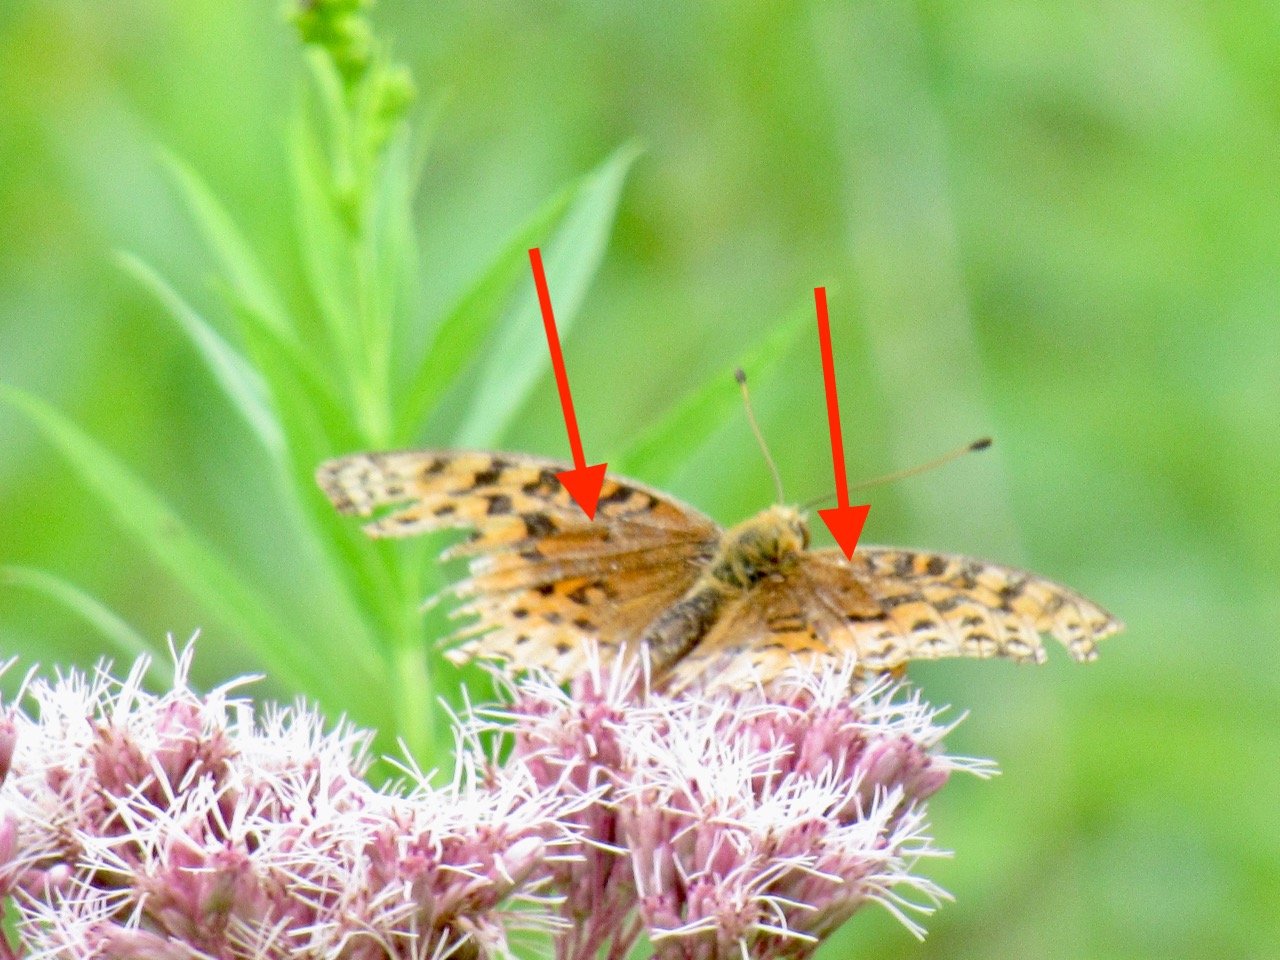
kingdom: Animalia
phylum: Arthropoda
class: Insecta
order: Lepidoptera
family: Nymphalidae
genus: Speyeria
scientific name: Speyeria aphrodite
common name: Aphrodite Fritillary
